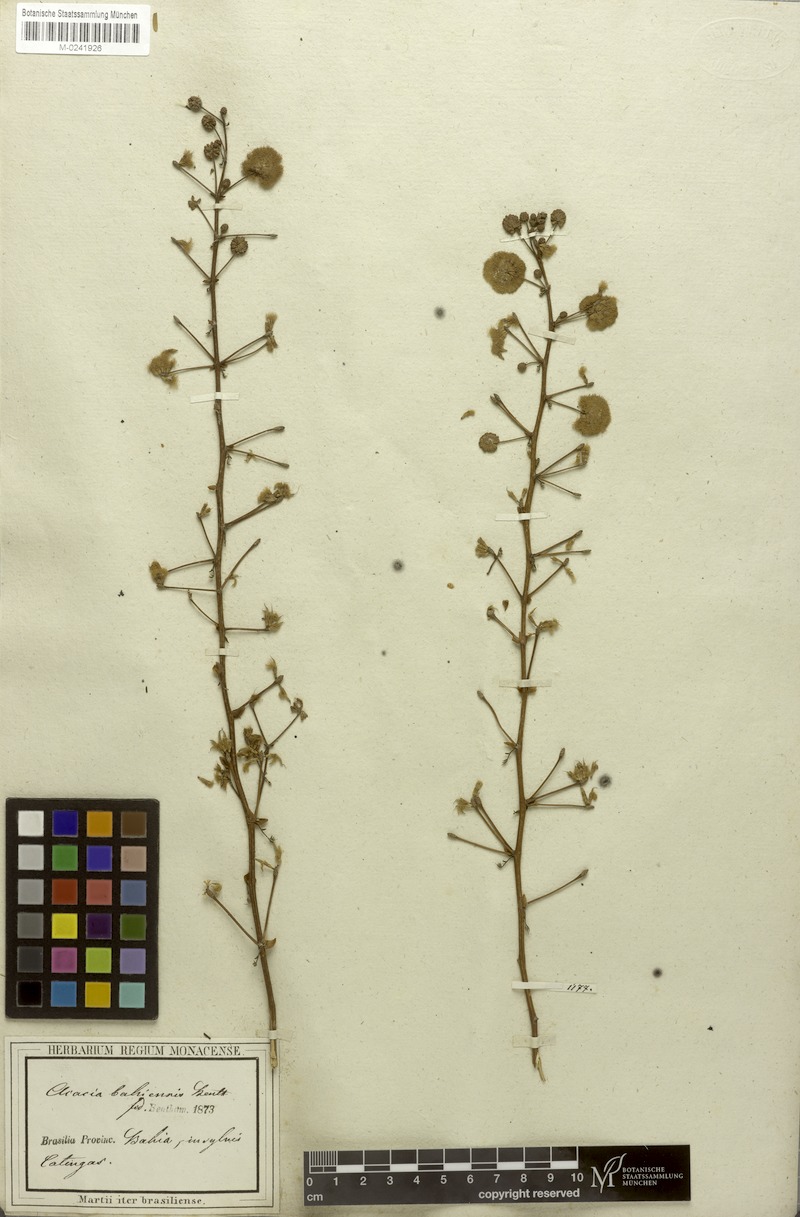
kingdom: Plantae
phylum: Tracheophyta
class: Magnoliopsida
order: Fabales
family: Fabaceae
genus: Senegalia
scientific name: Senegalia bahiensis
